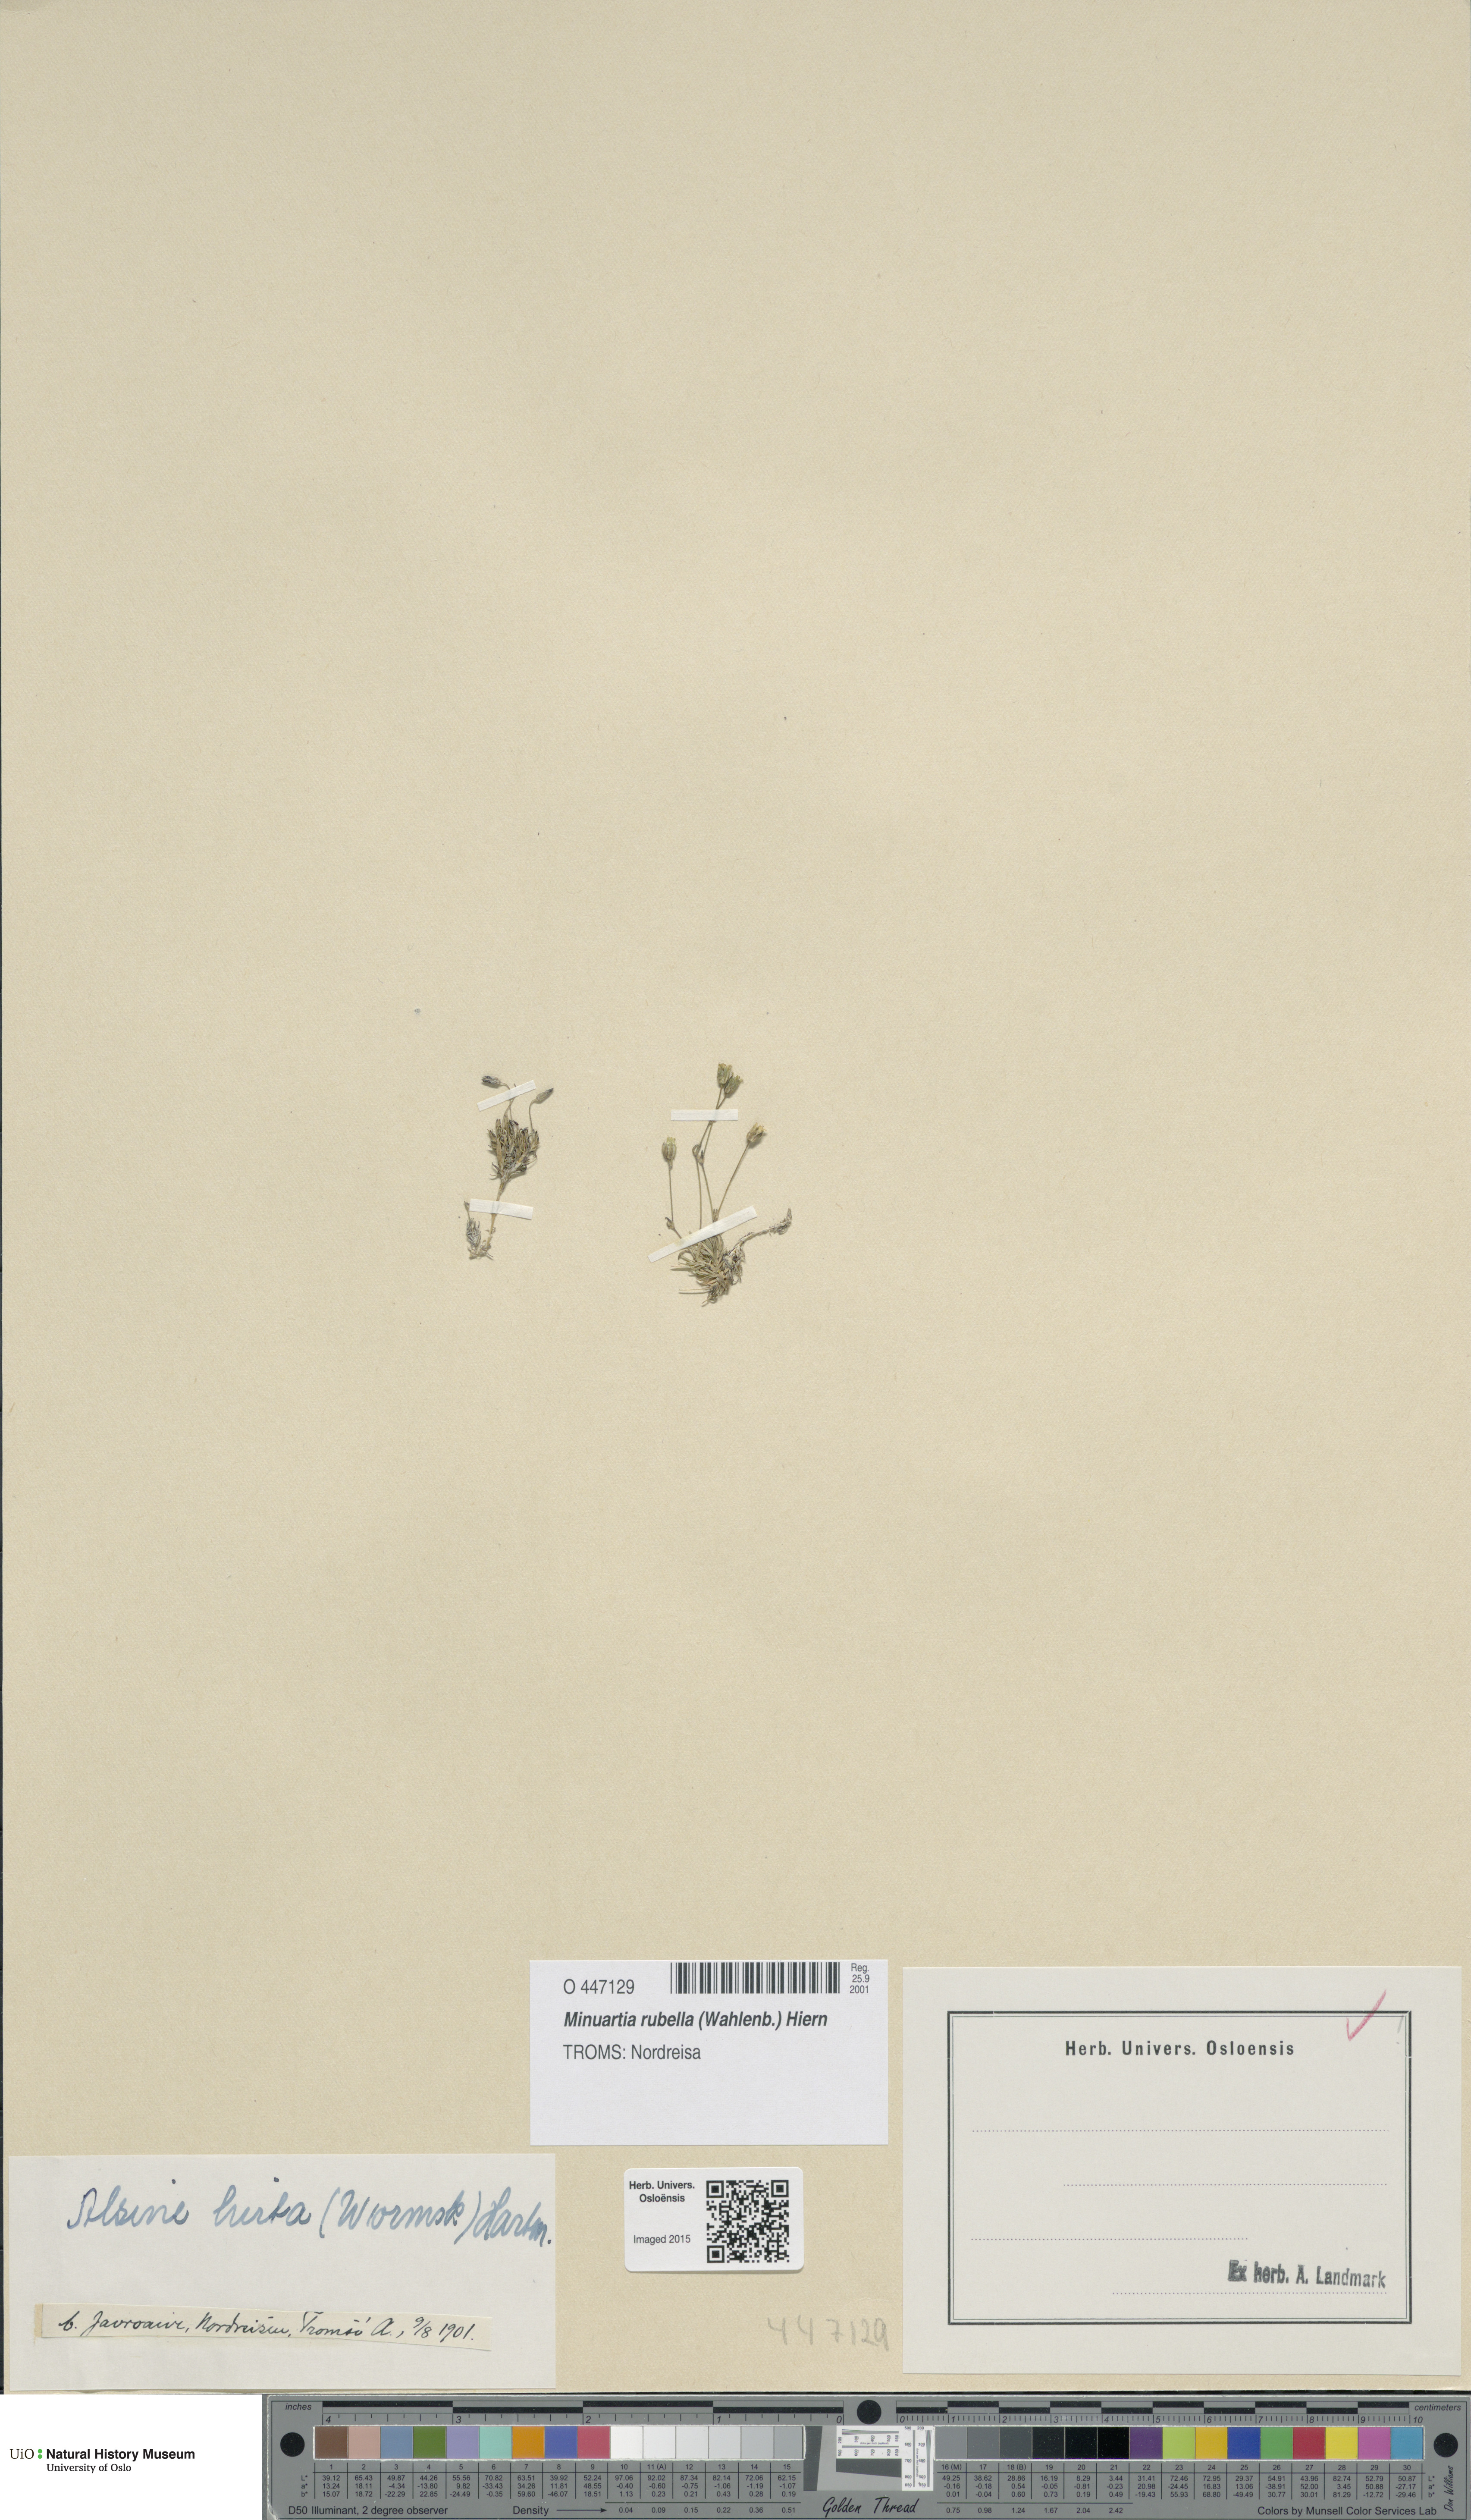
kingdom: Plantae
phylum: Tracheophyta
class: Magnoliopsida
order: Caryophyllales
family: Caryophyllaceae
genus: Sabulina
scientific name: Sabulina rubella
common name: Beautiful sandwort
